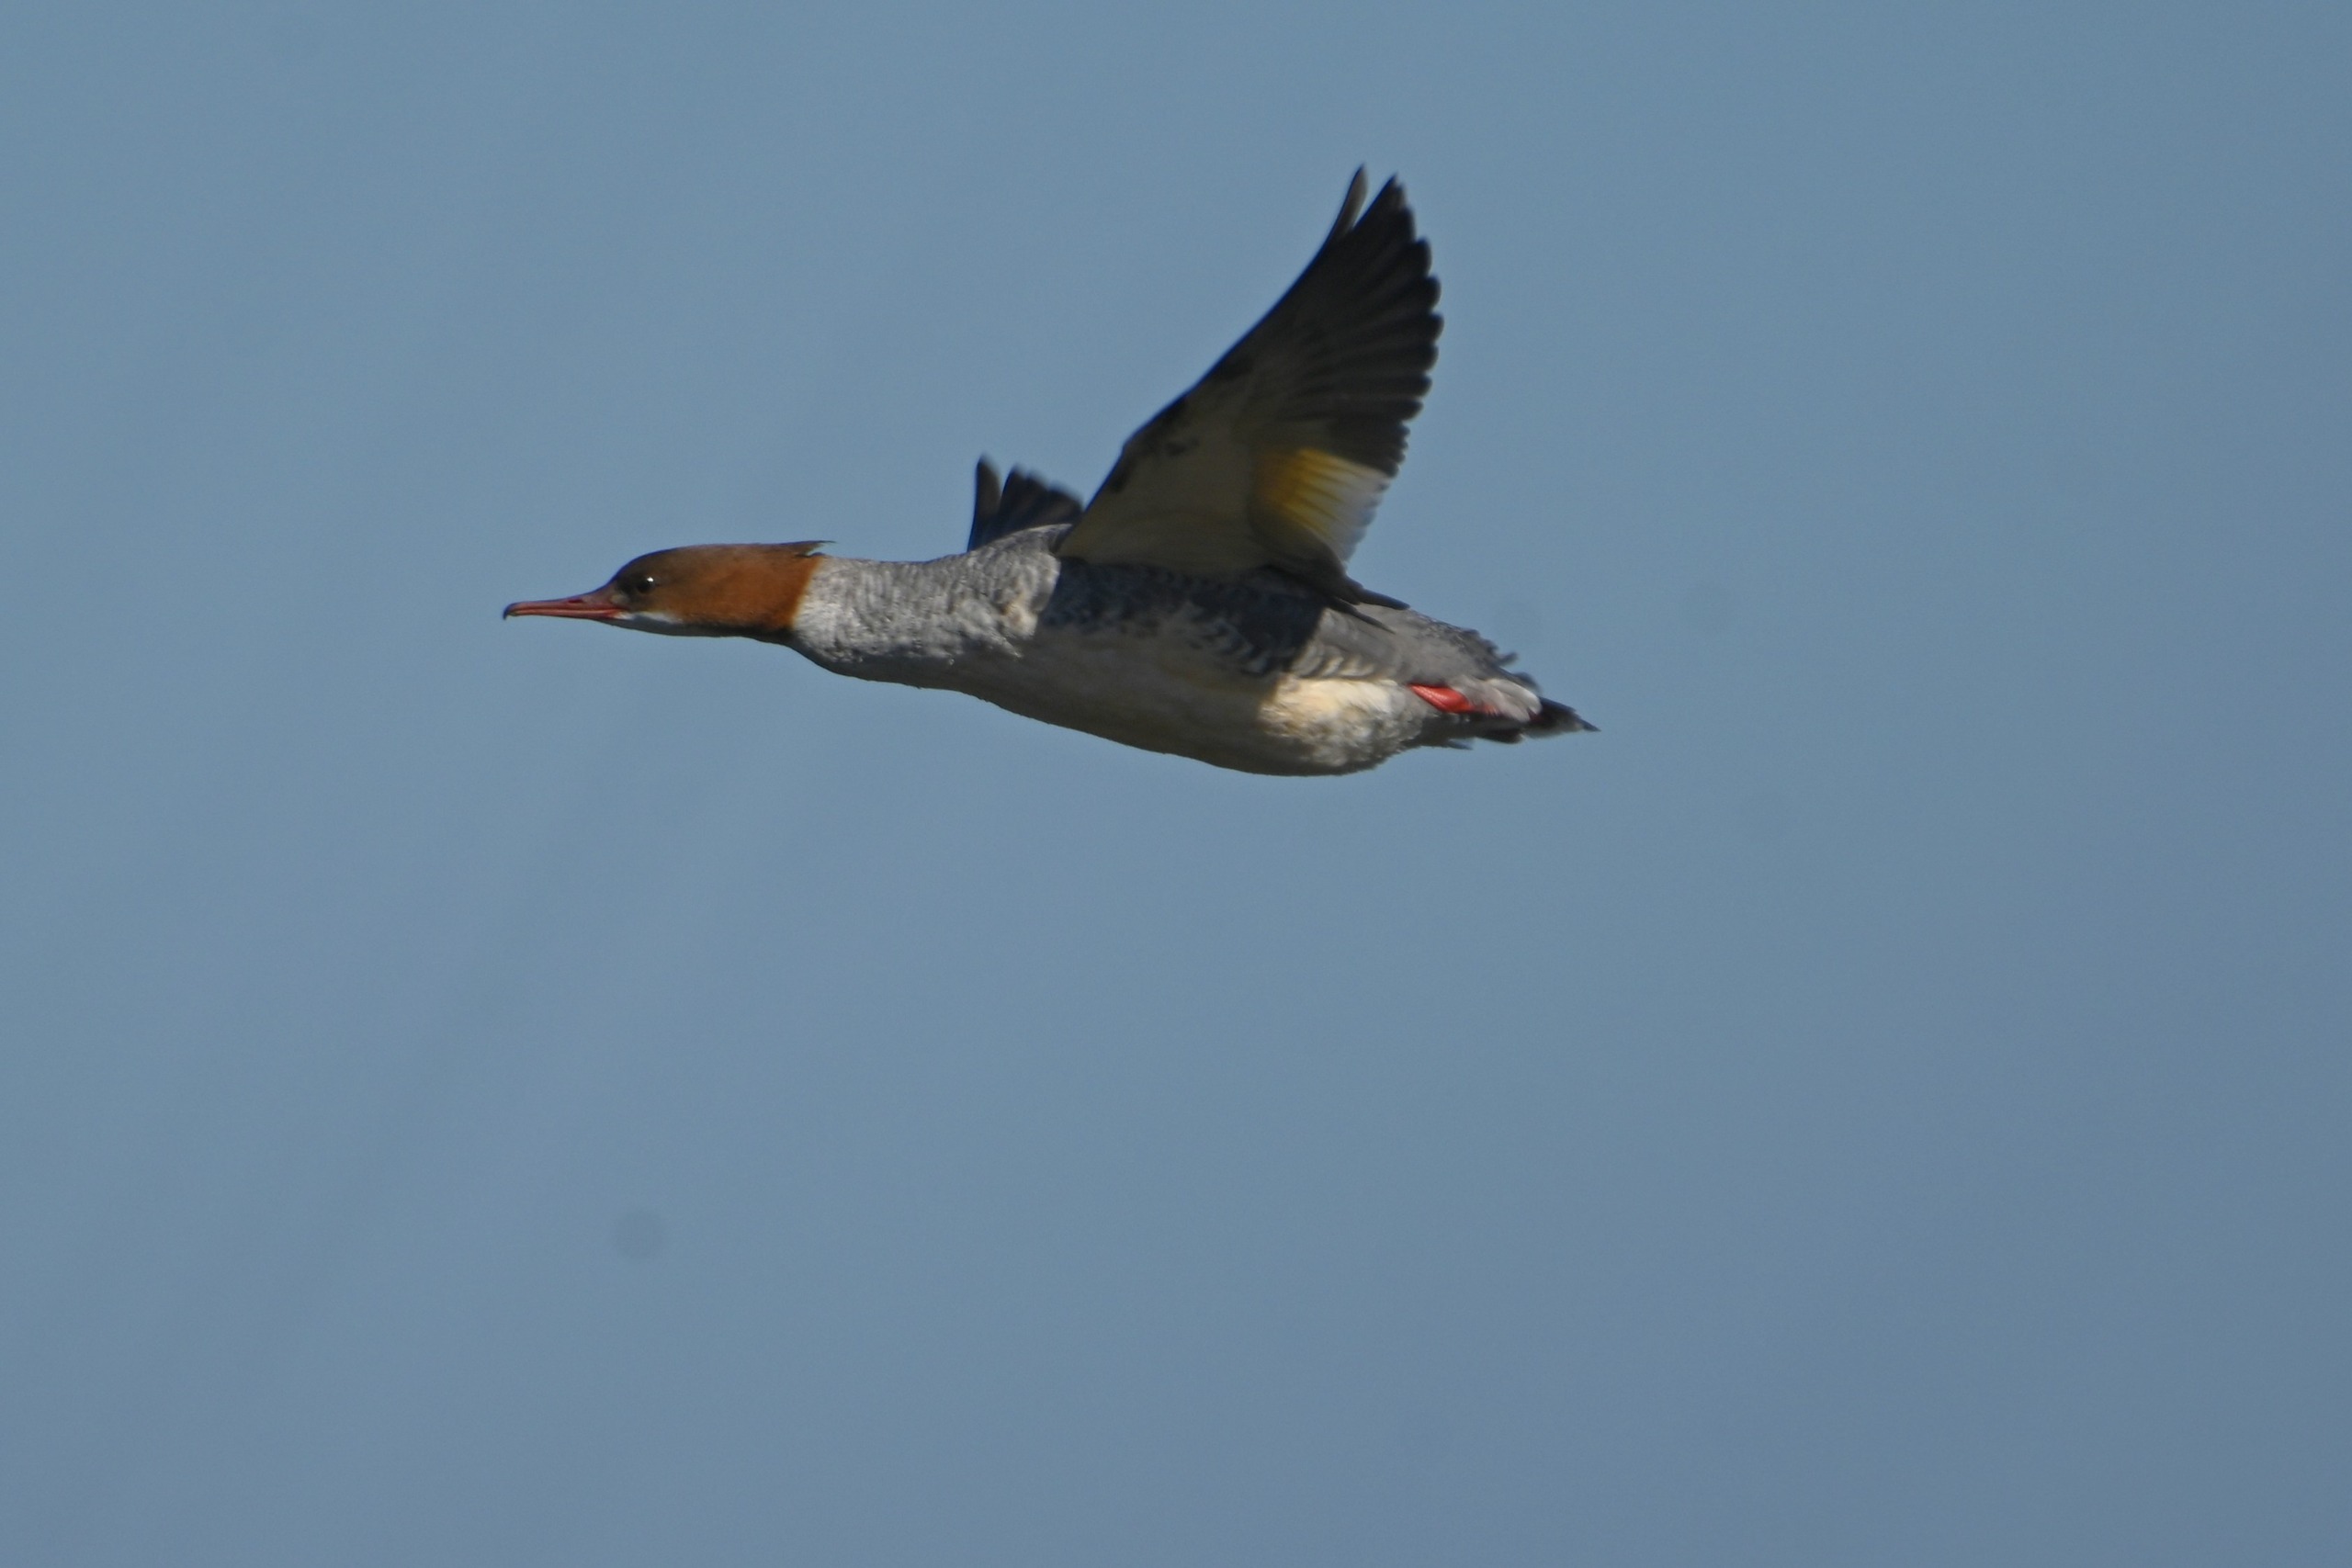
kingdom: Animalia
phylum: Chordata
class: Aves
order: Anseriformes
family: Anatidae
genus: Mergus
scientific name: Mergus merganser
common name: Stor skallesluger
